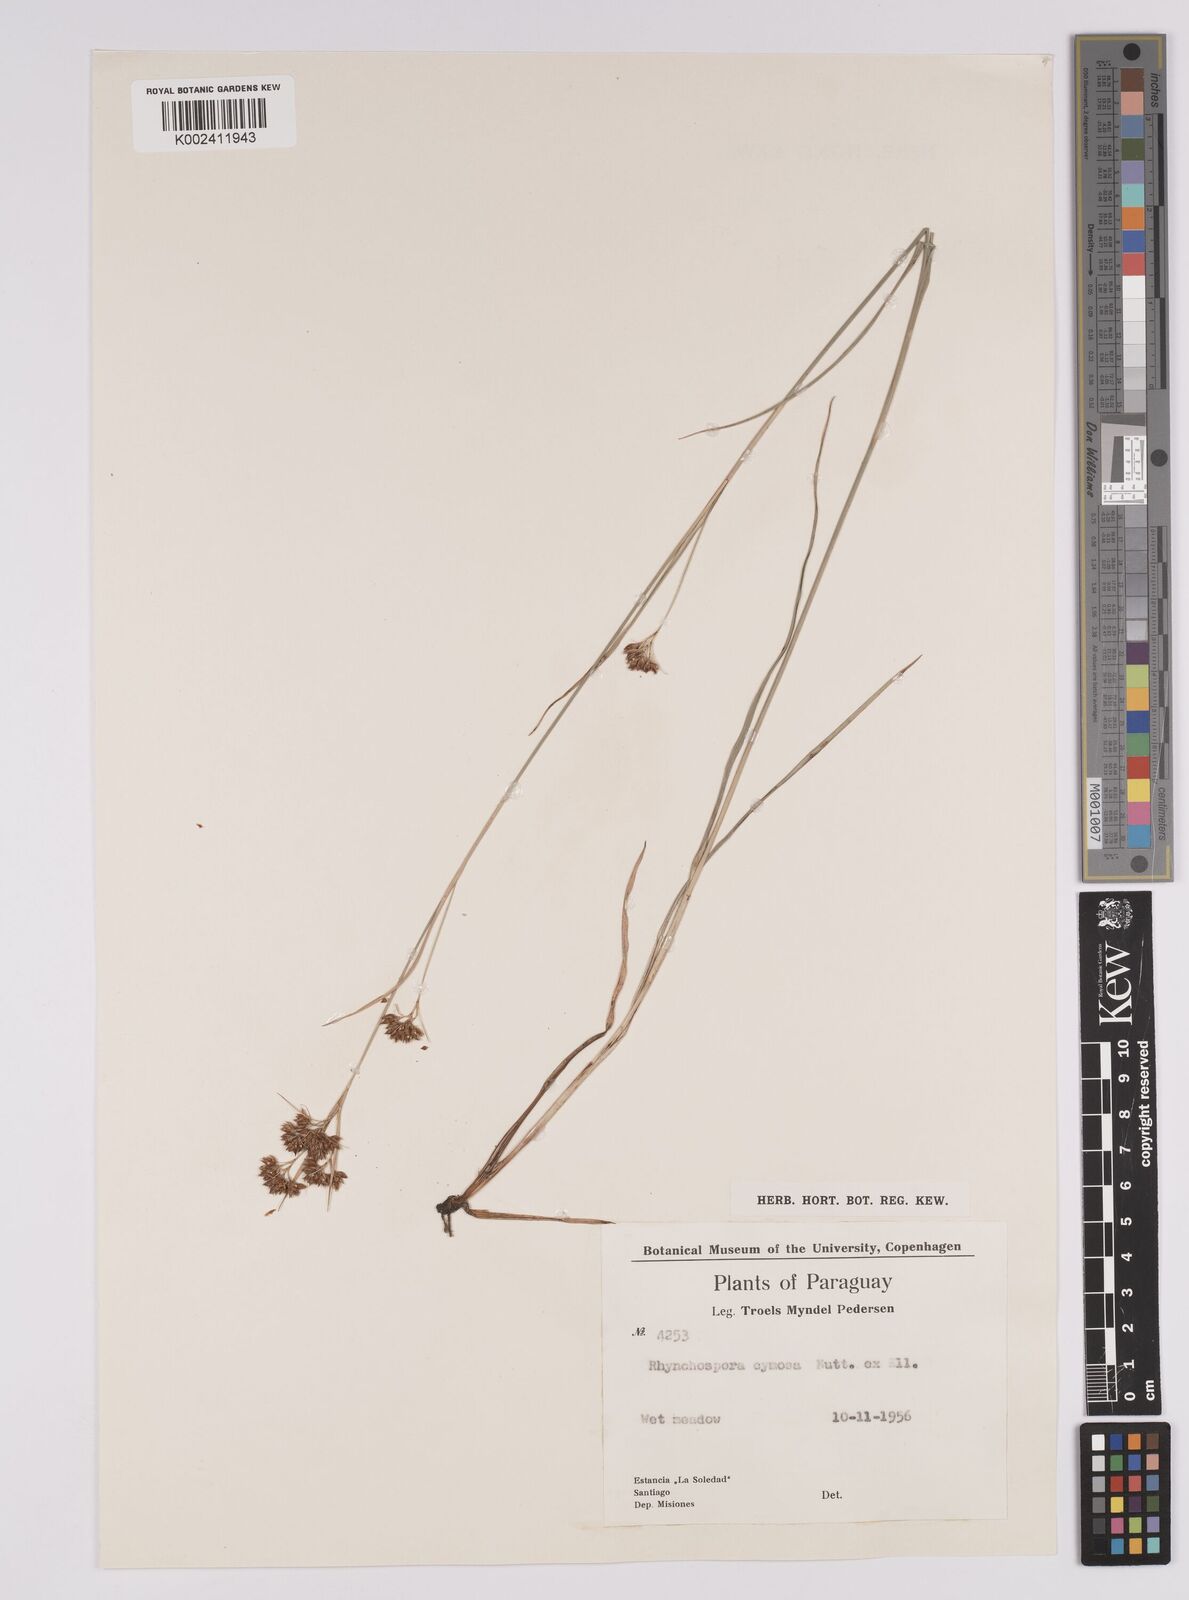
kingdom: Plantae
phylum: Tracheophyta
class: Liliopsida
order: Poales
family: Cyperaceae
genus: Rhynchospora
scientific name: Rhynchospora barrosiana
